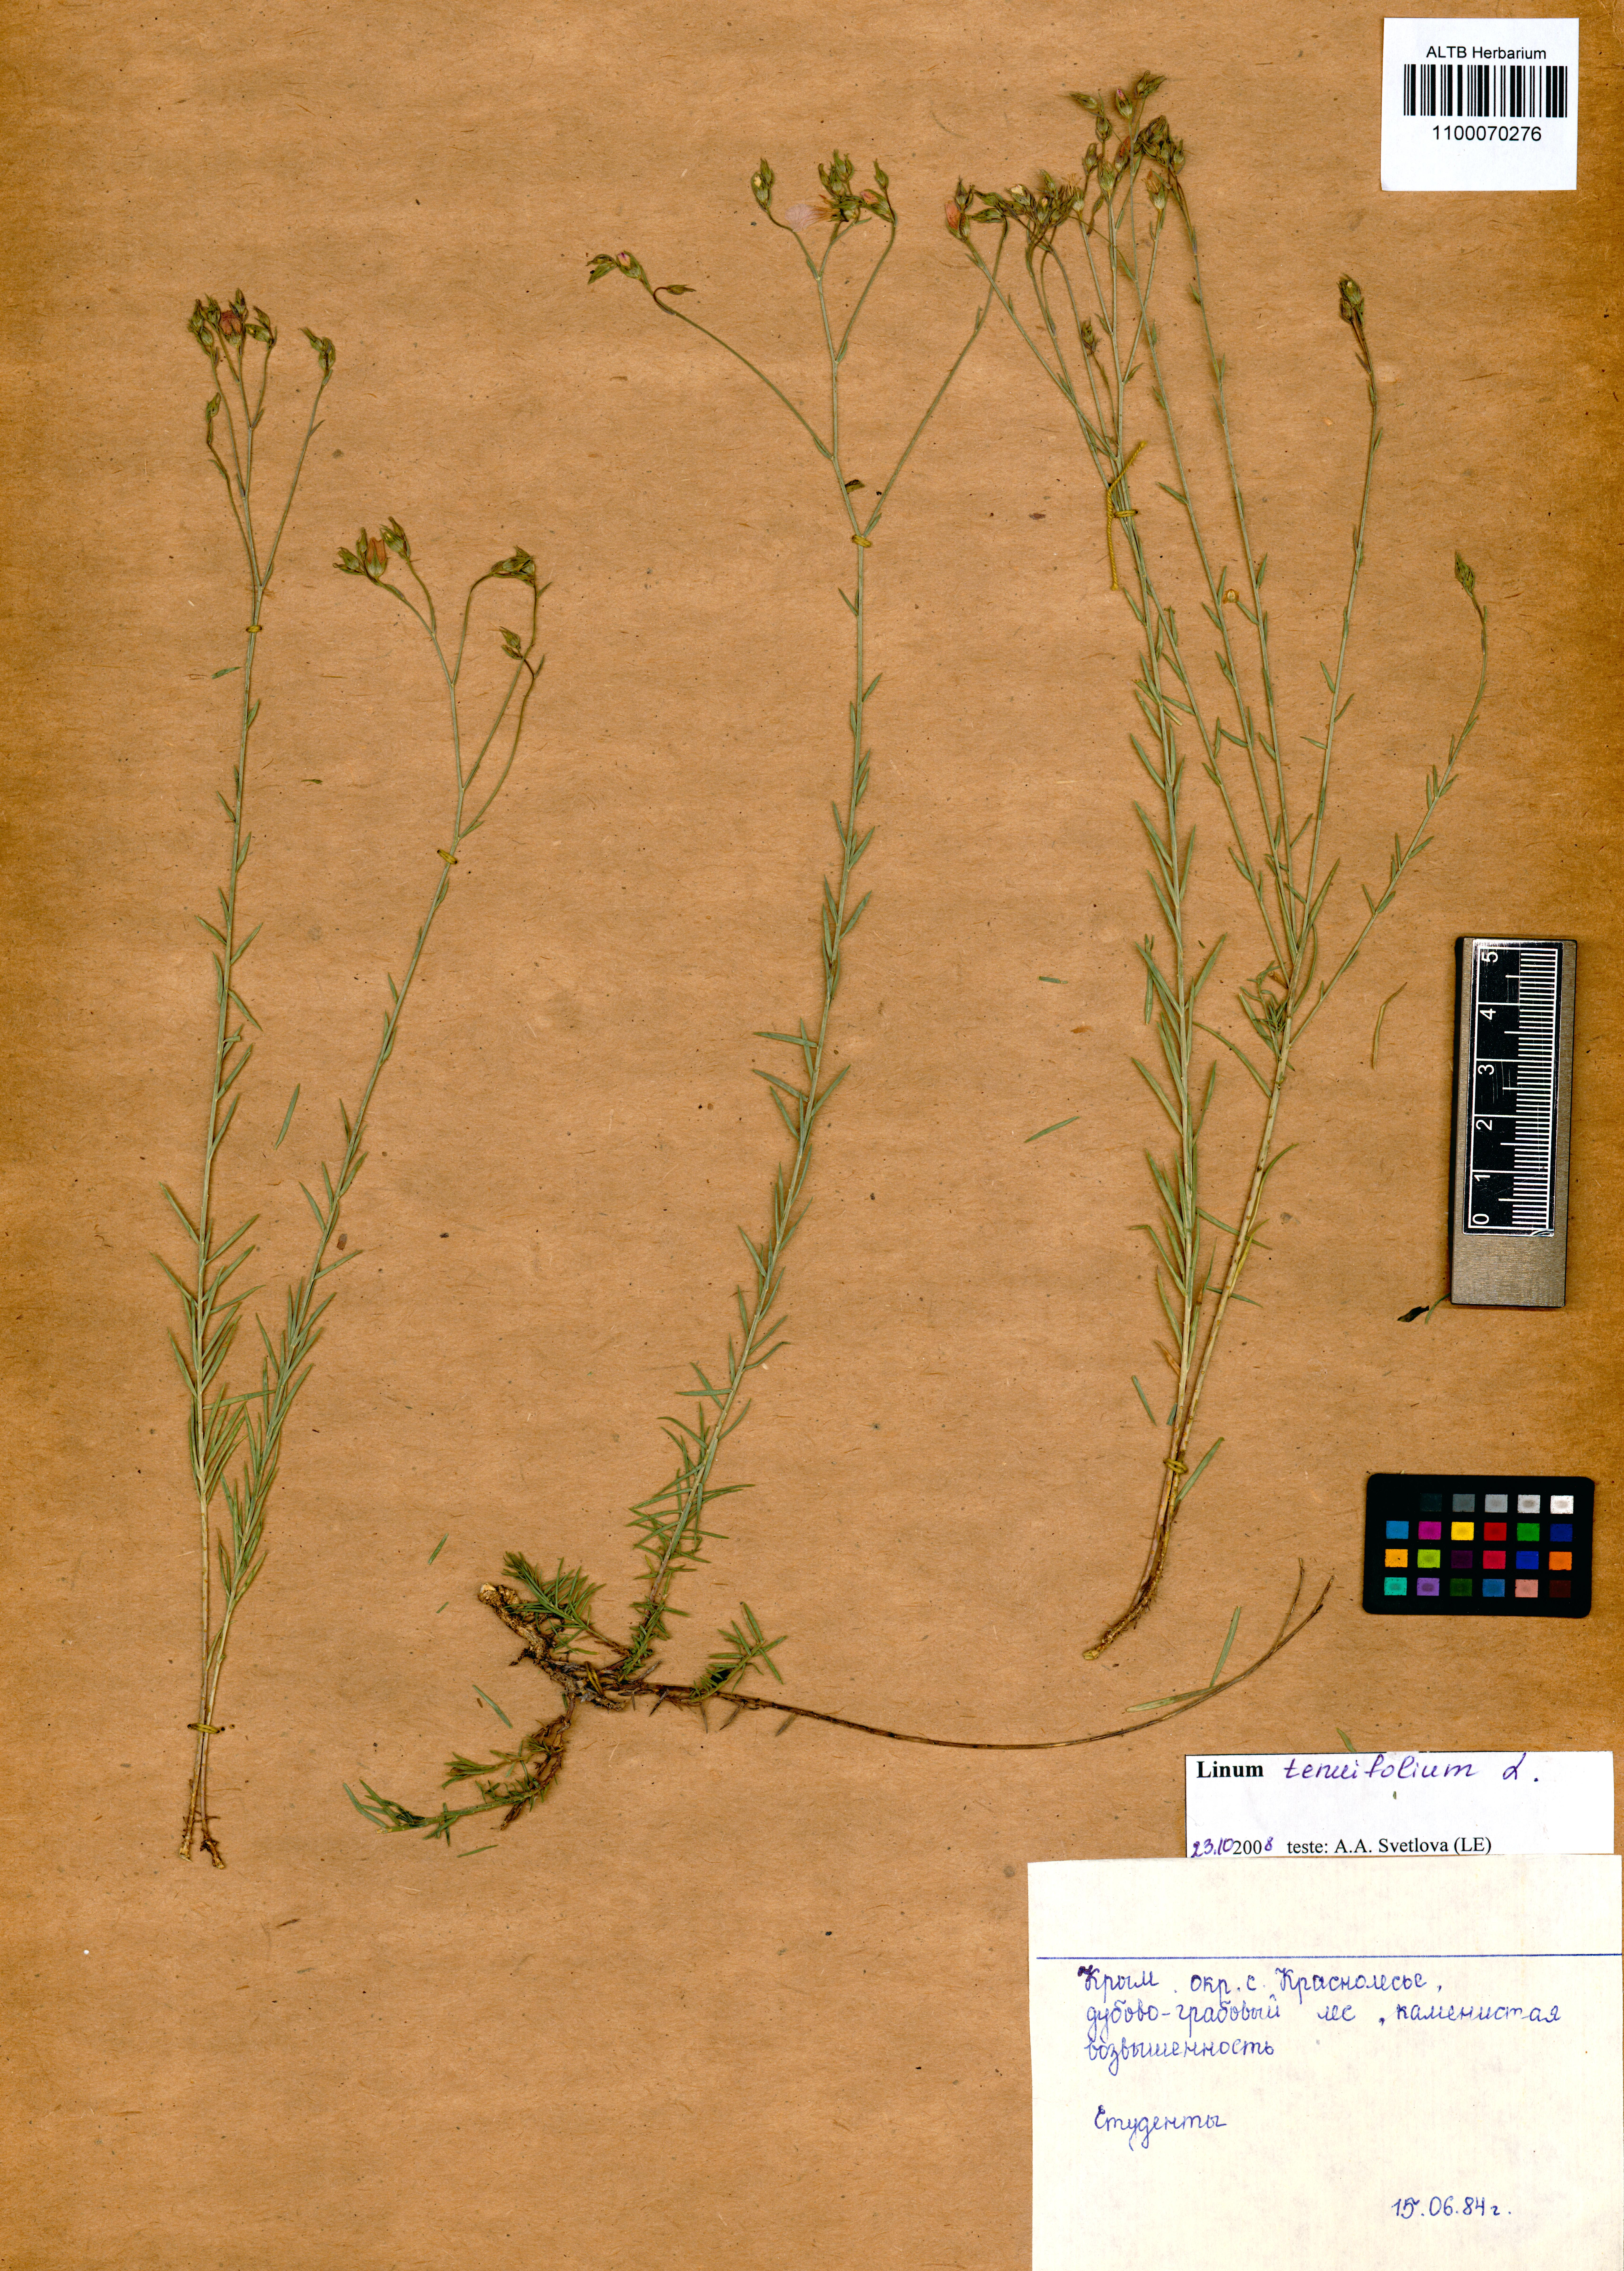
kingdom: Plantae
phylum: Tracheophyta
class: Magnoliopsida
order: Malpighiales
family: Linaceae
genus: Linum
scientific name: Linum tenuifolium
